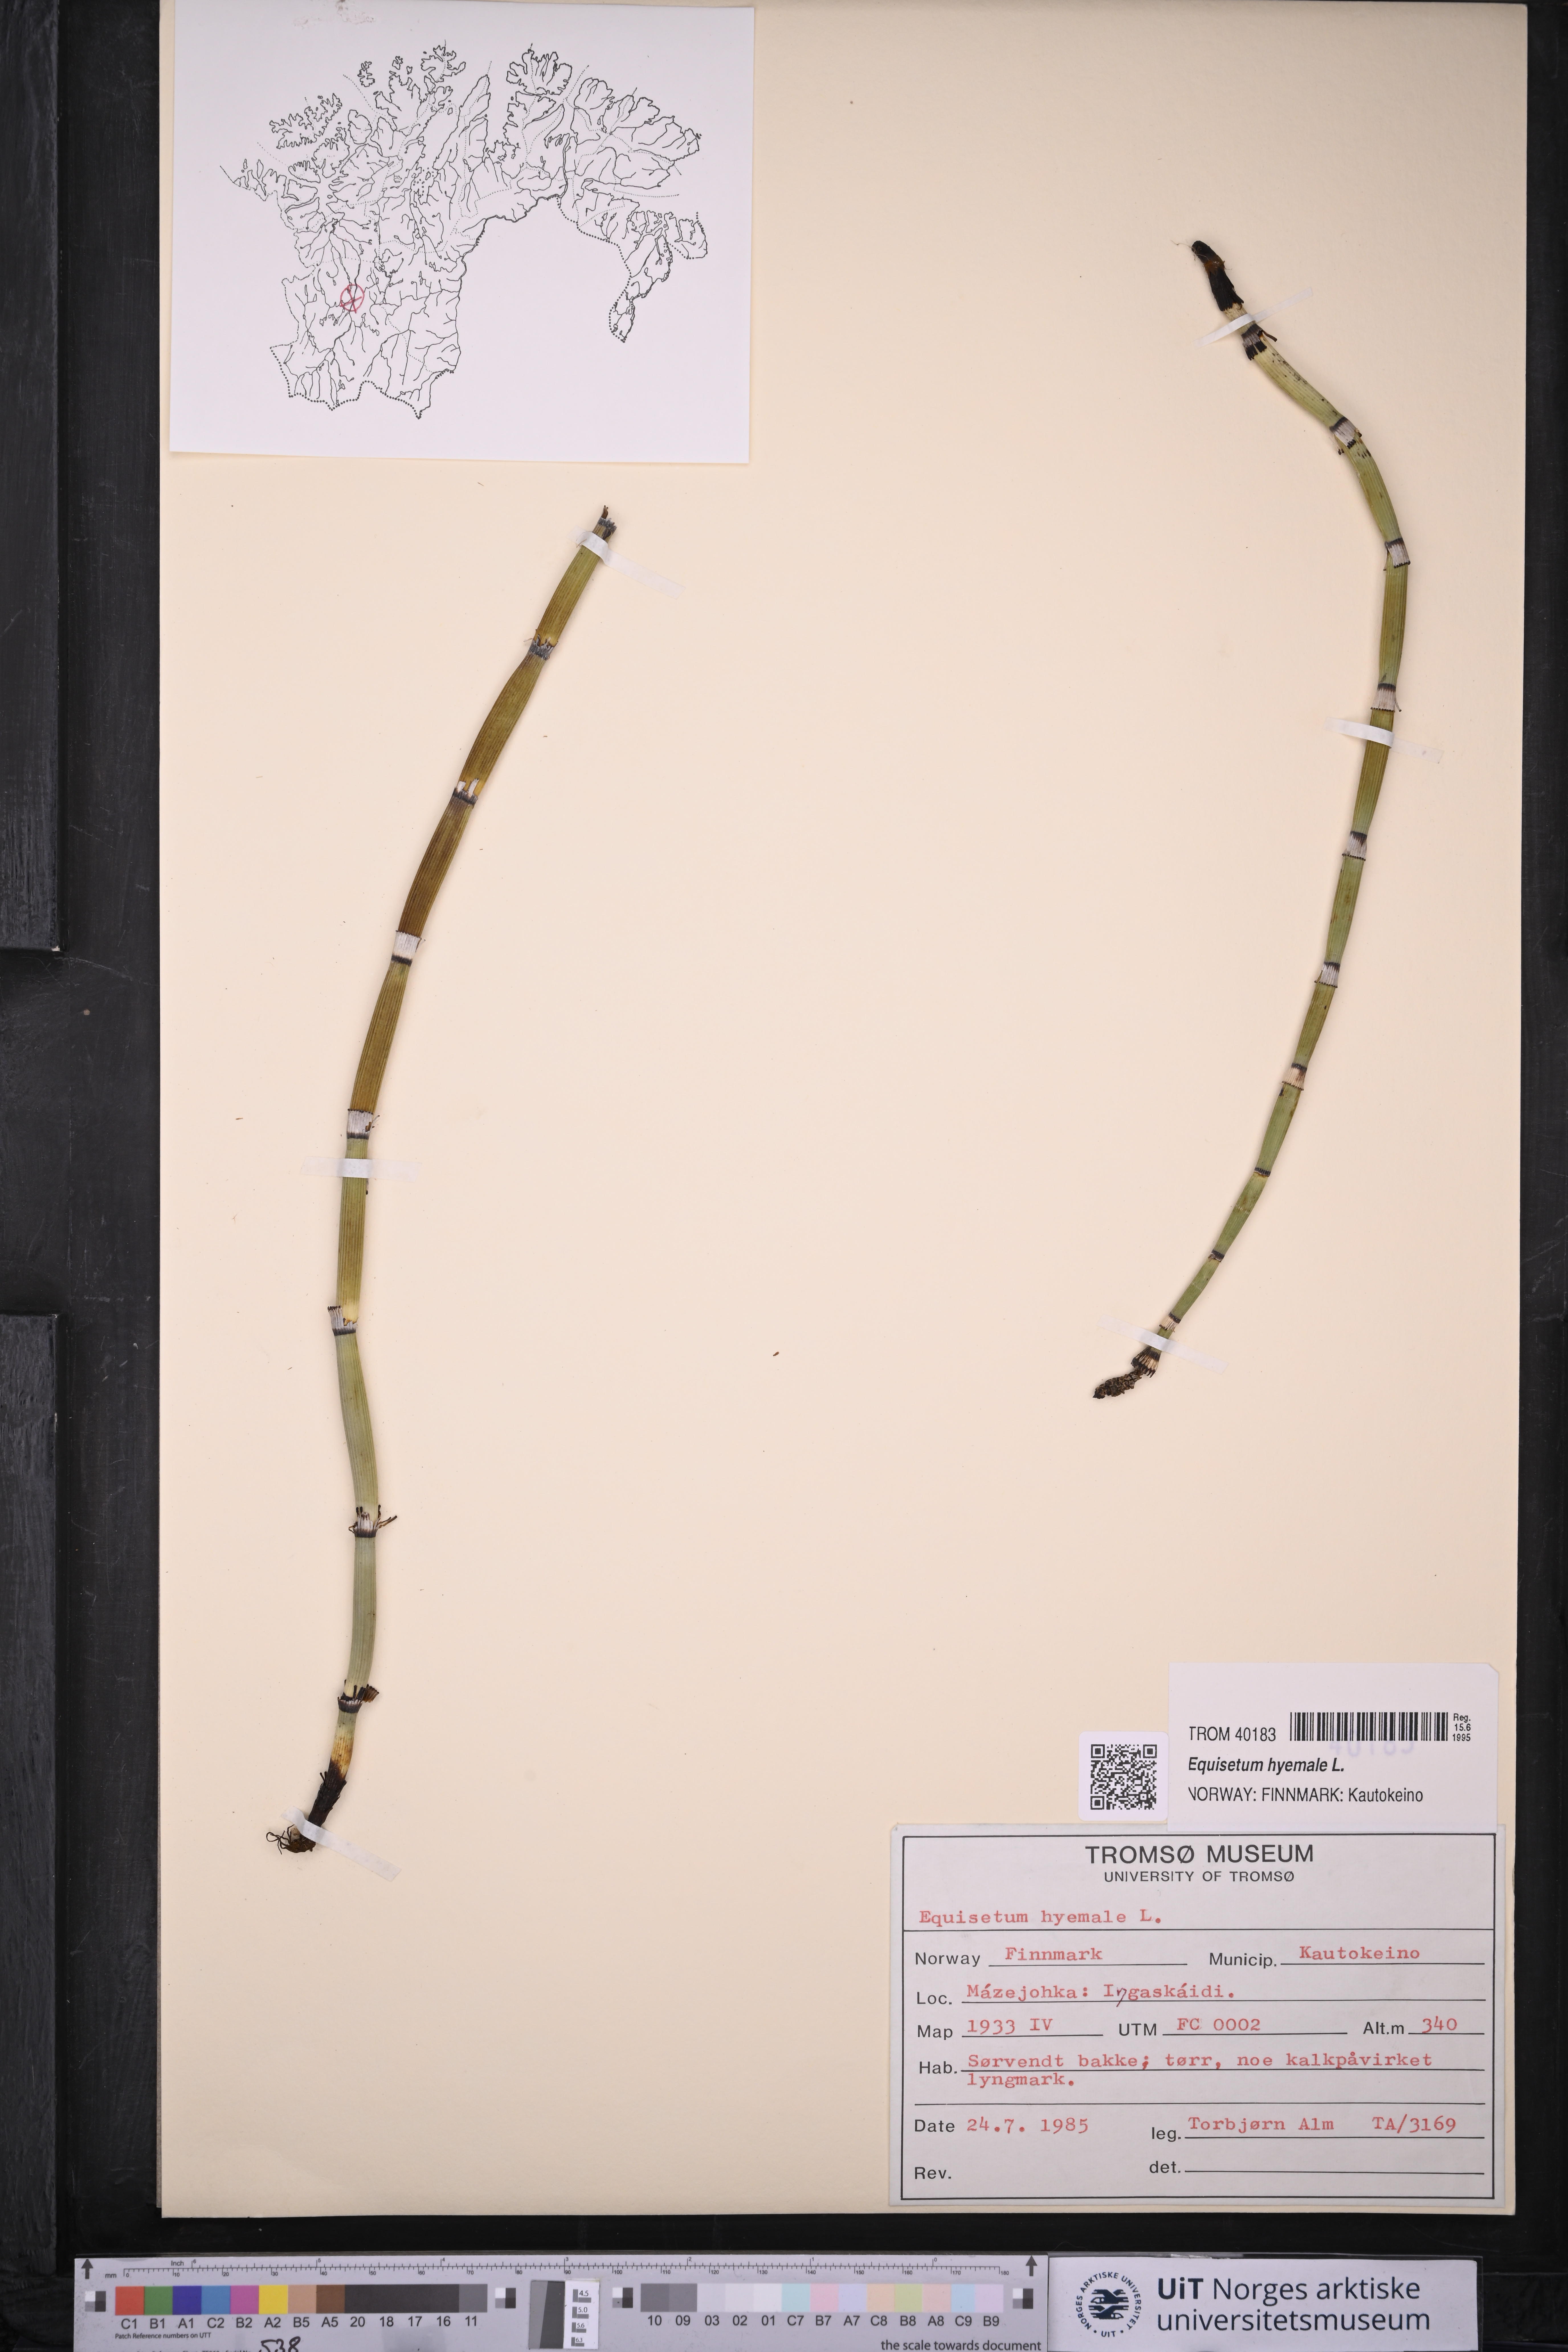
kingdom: Plantae
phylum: Tracheophyta
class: Polypodiopsida
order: Equisetales
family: Equisetaceae
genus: Equisetum
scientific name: Equisetum hyemale
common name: Rough horsetail
